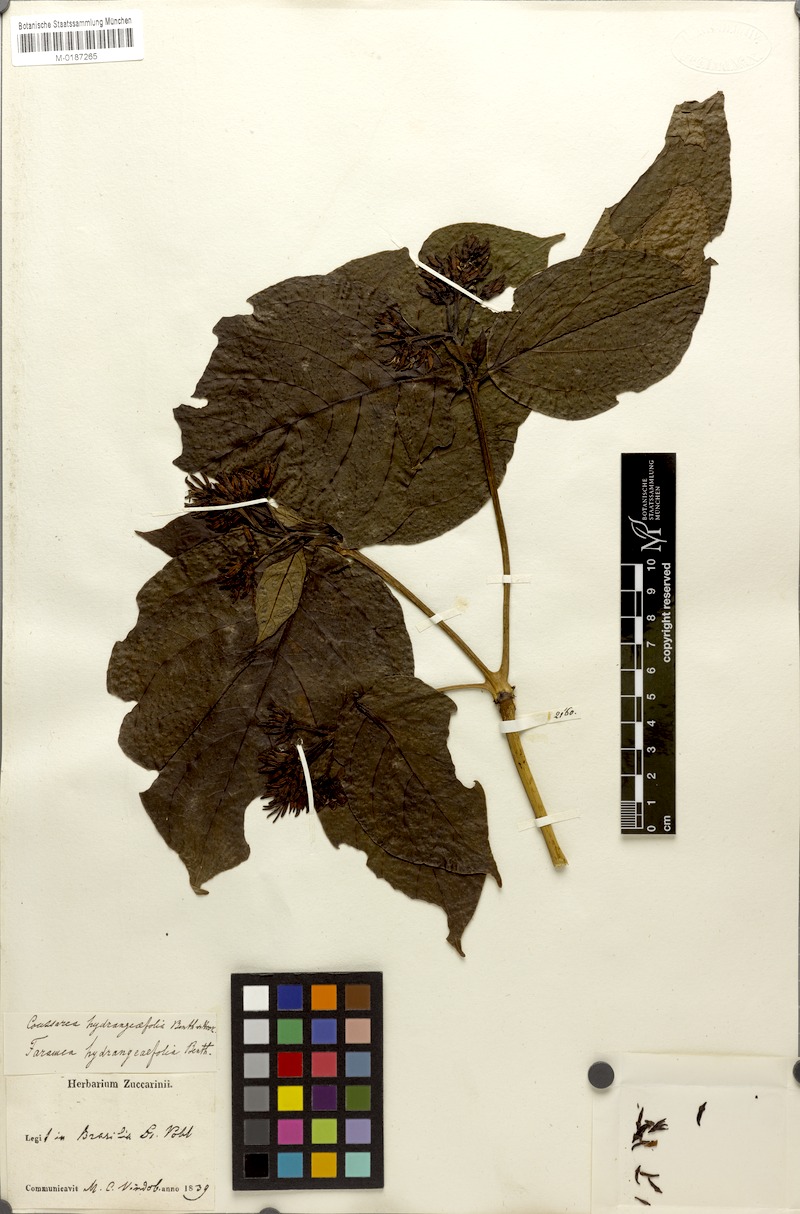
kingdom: Plantae
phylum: Tracheophyta
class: Magnoliopsida
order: Gentianales
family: Rubiaceae
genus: Coussarea
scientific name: Coussarea hydrangeifolia
